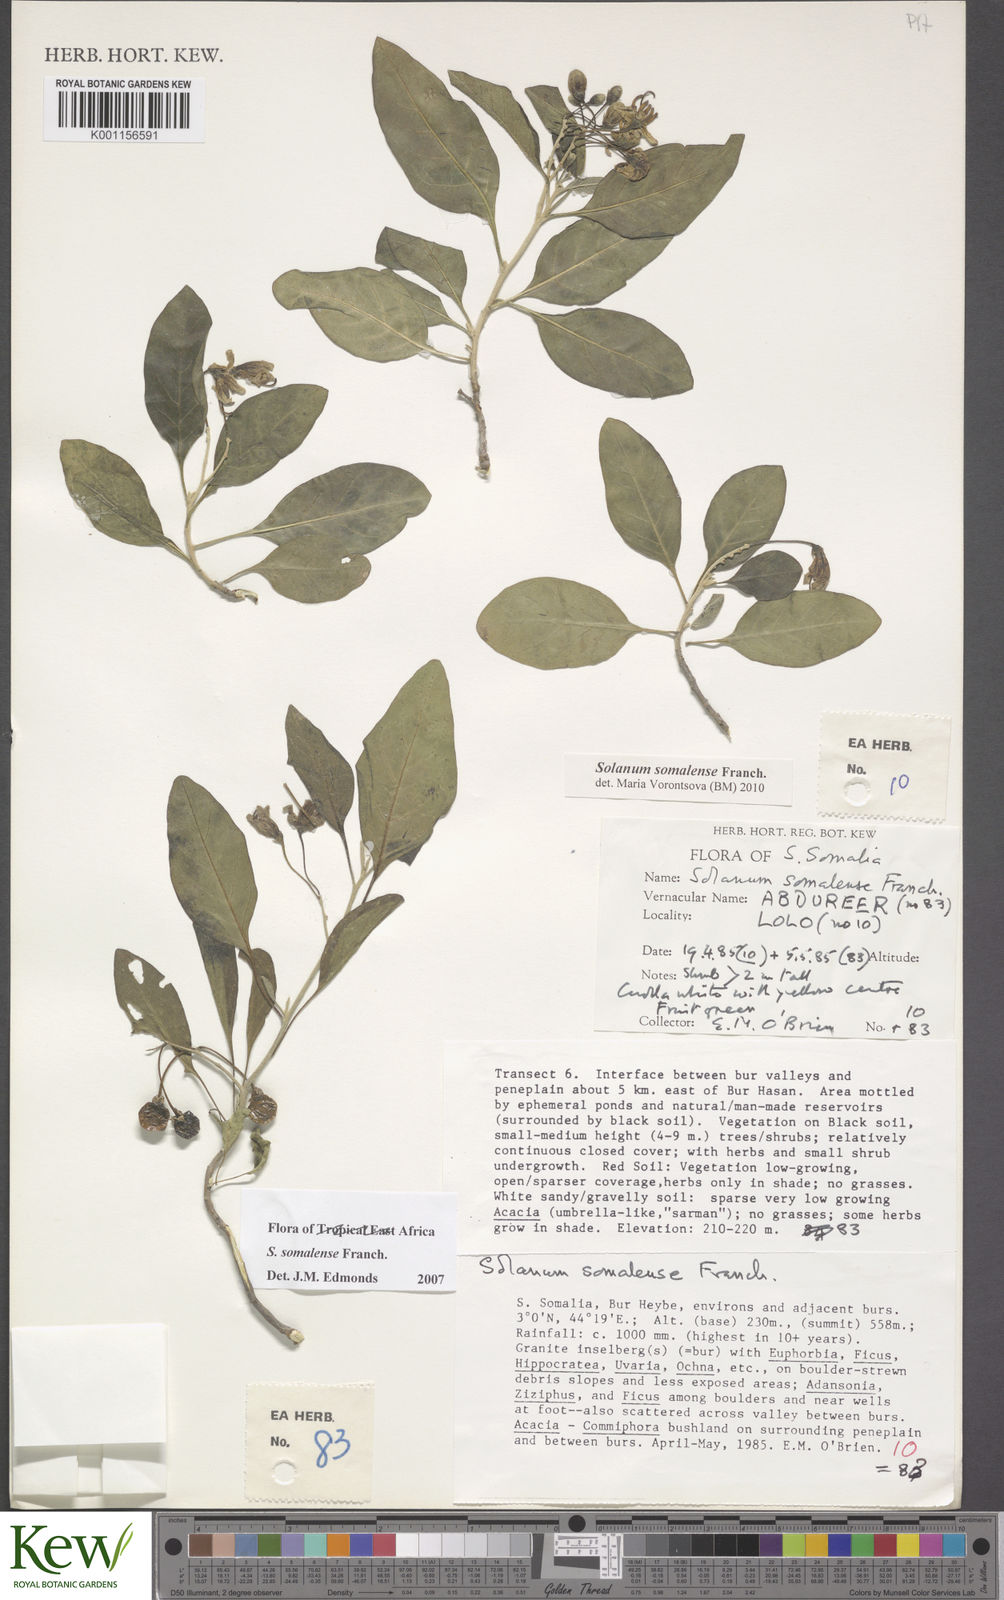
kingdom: Plantae
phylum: Tracheophyta
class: Magnoliopsida
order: Solanales
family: Solanaceae
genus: Solanum
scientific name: Solanum somalense
